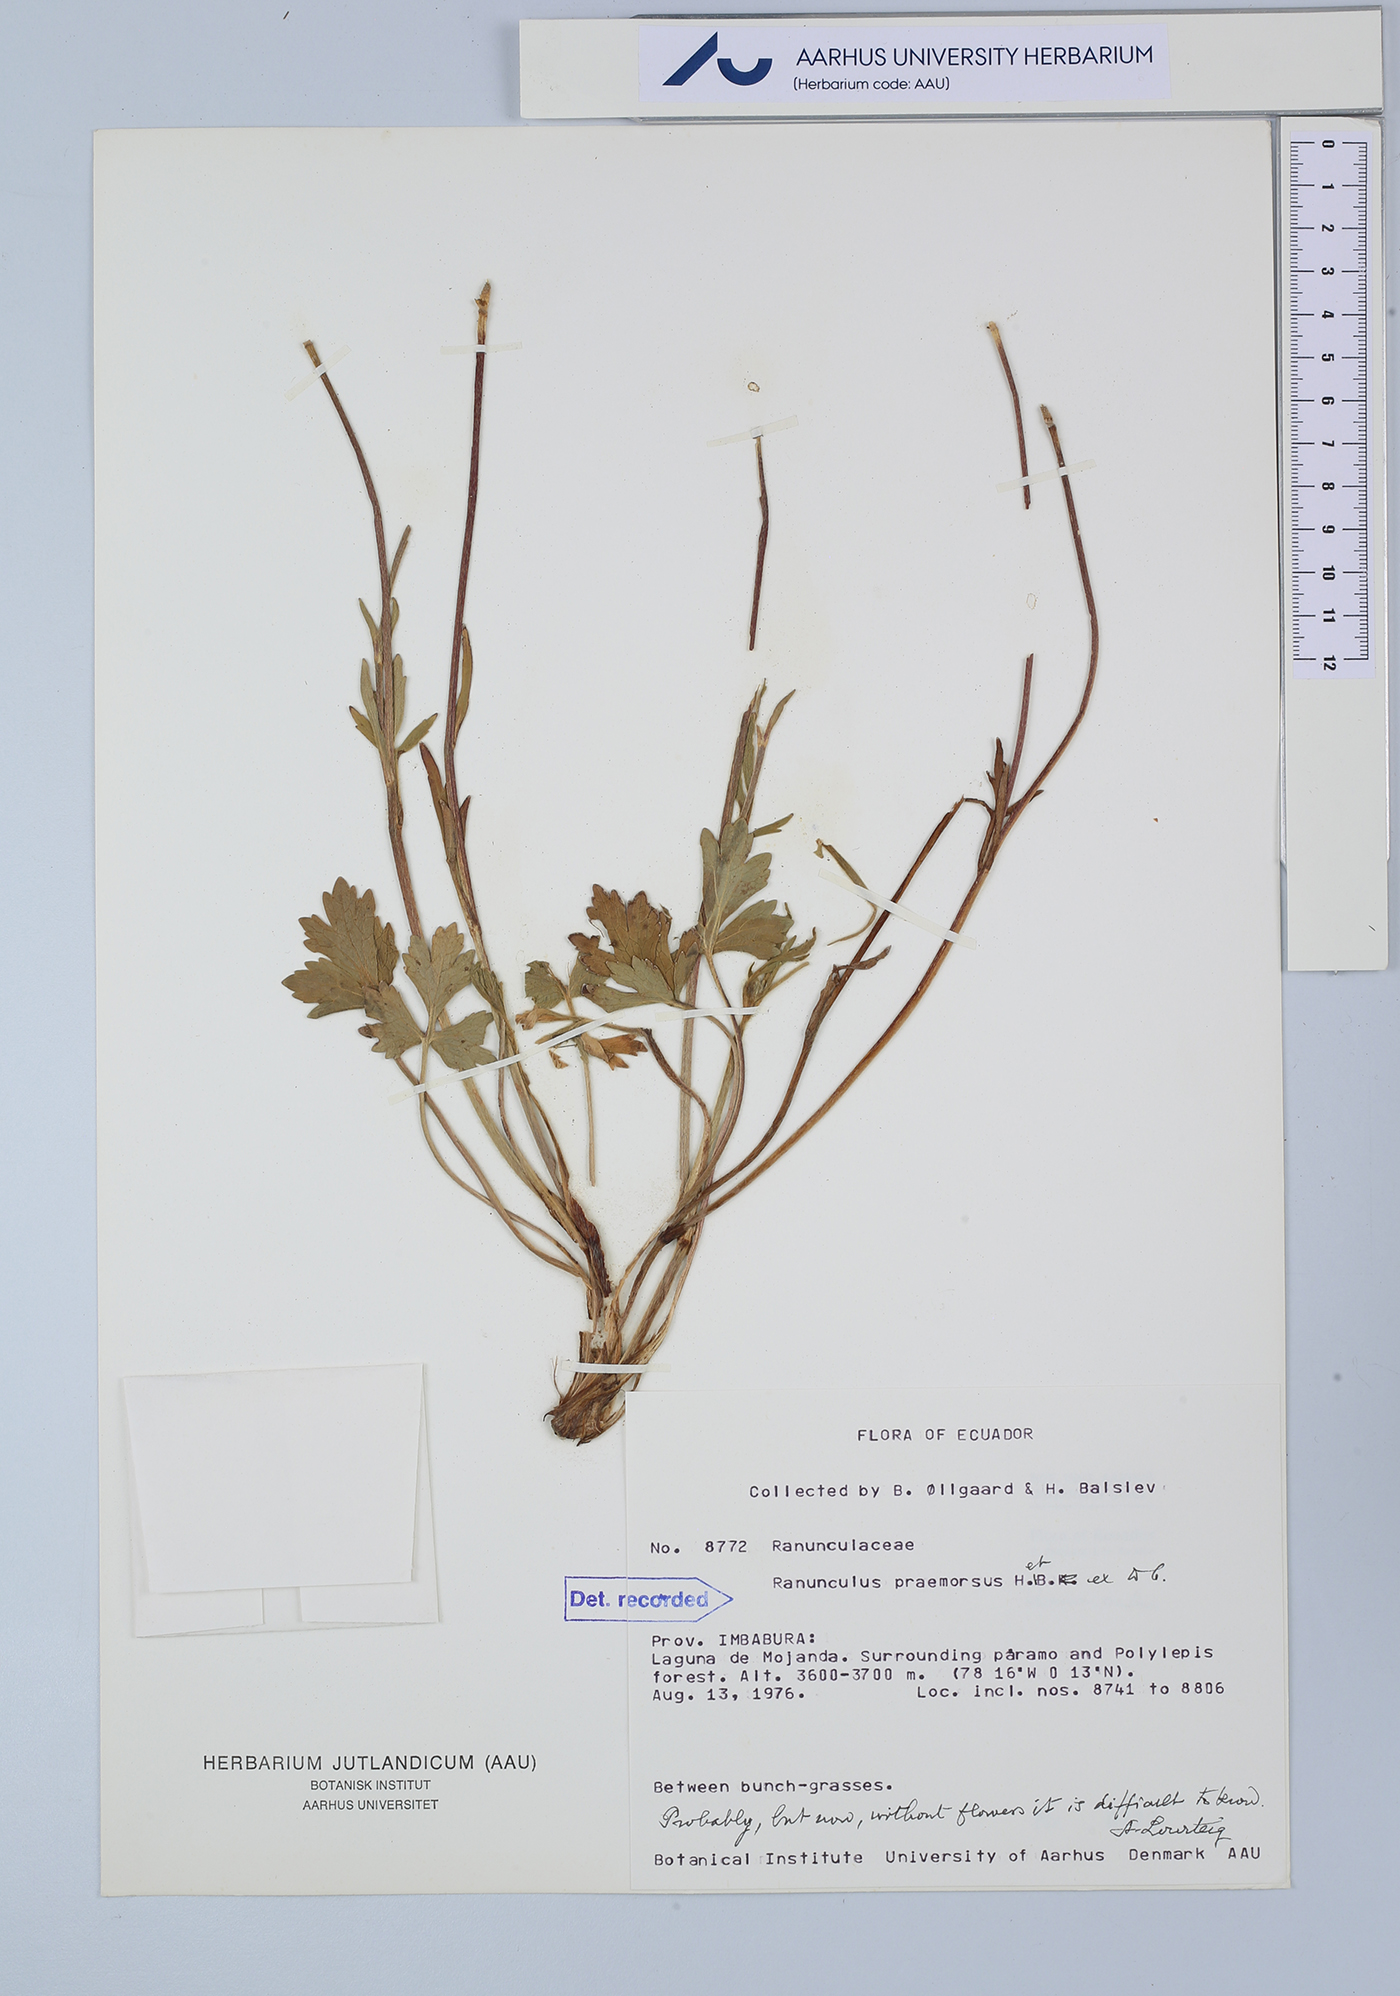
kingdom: Plantae
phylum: Tracheophyta
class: Magnoliopsida
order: Ranunculales
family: Ranunculaceae
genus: Ranunculus
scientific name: Ranunculus praemorsus
